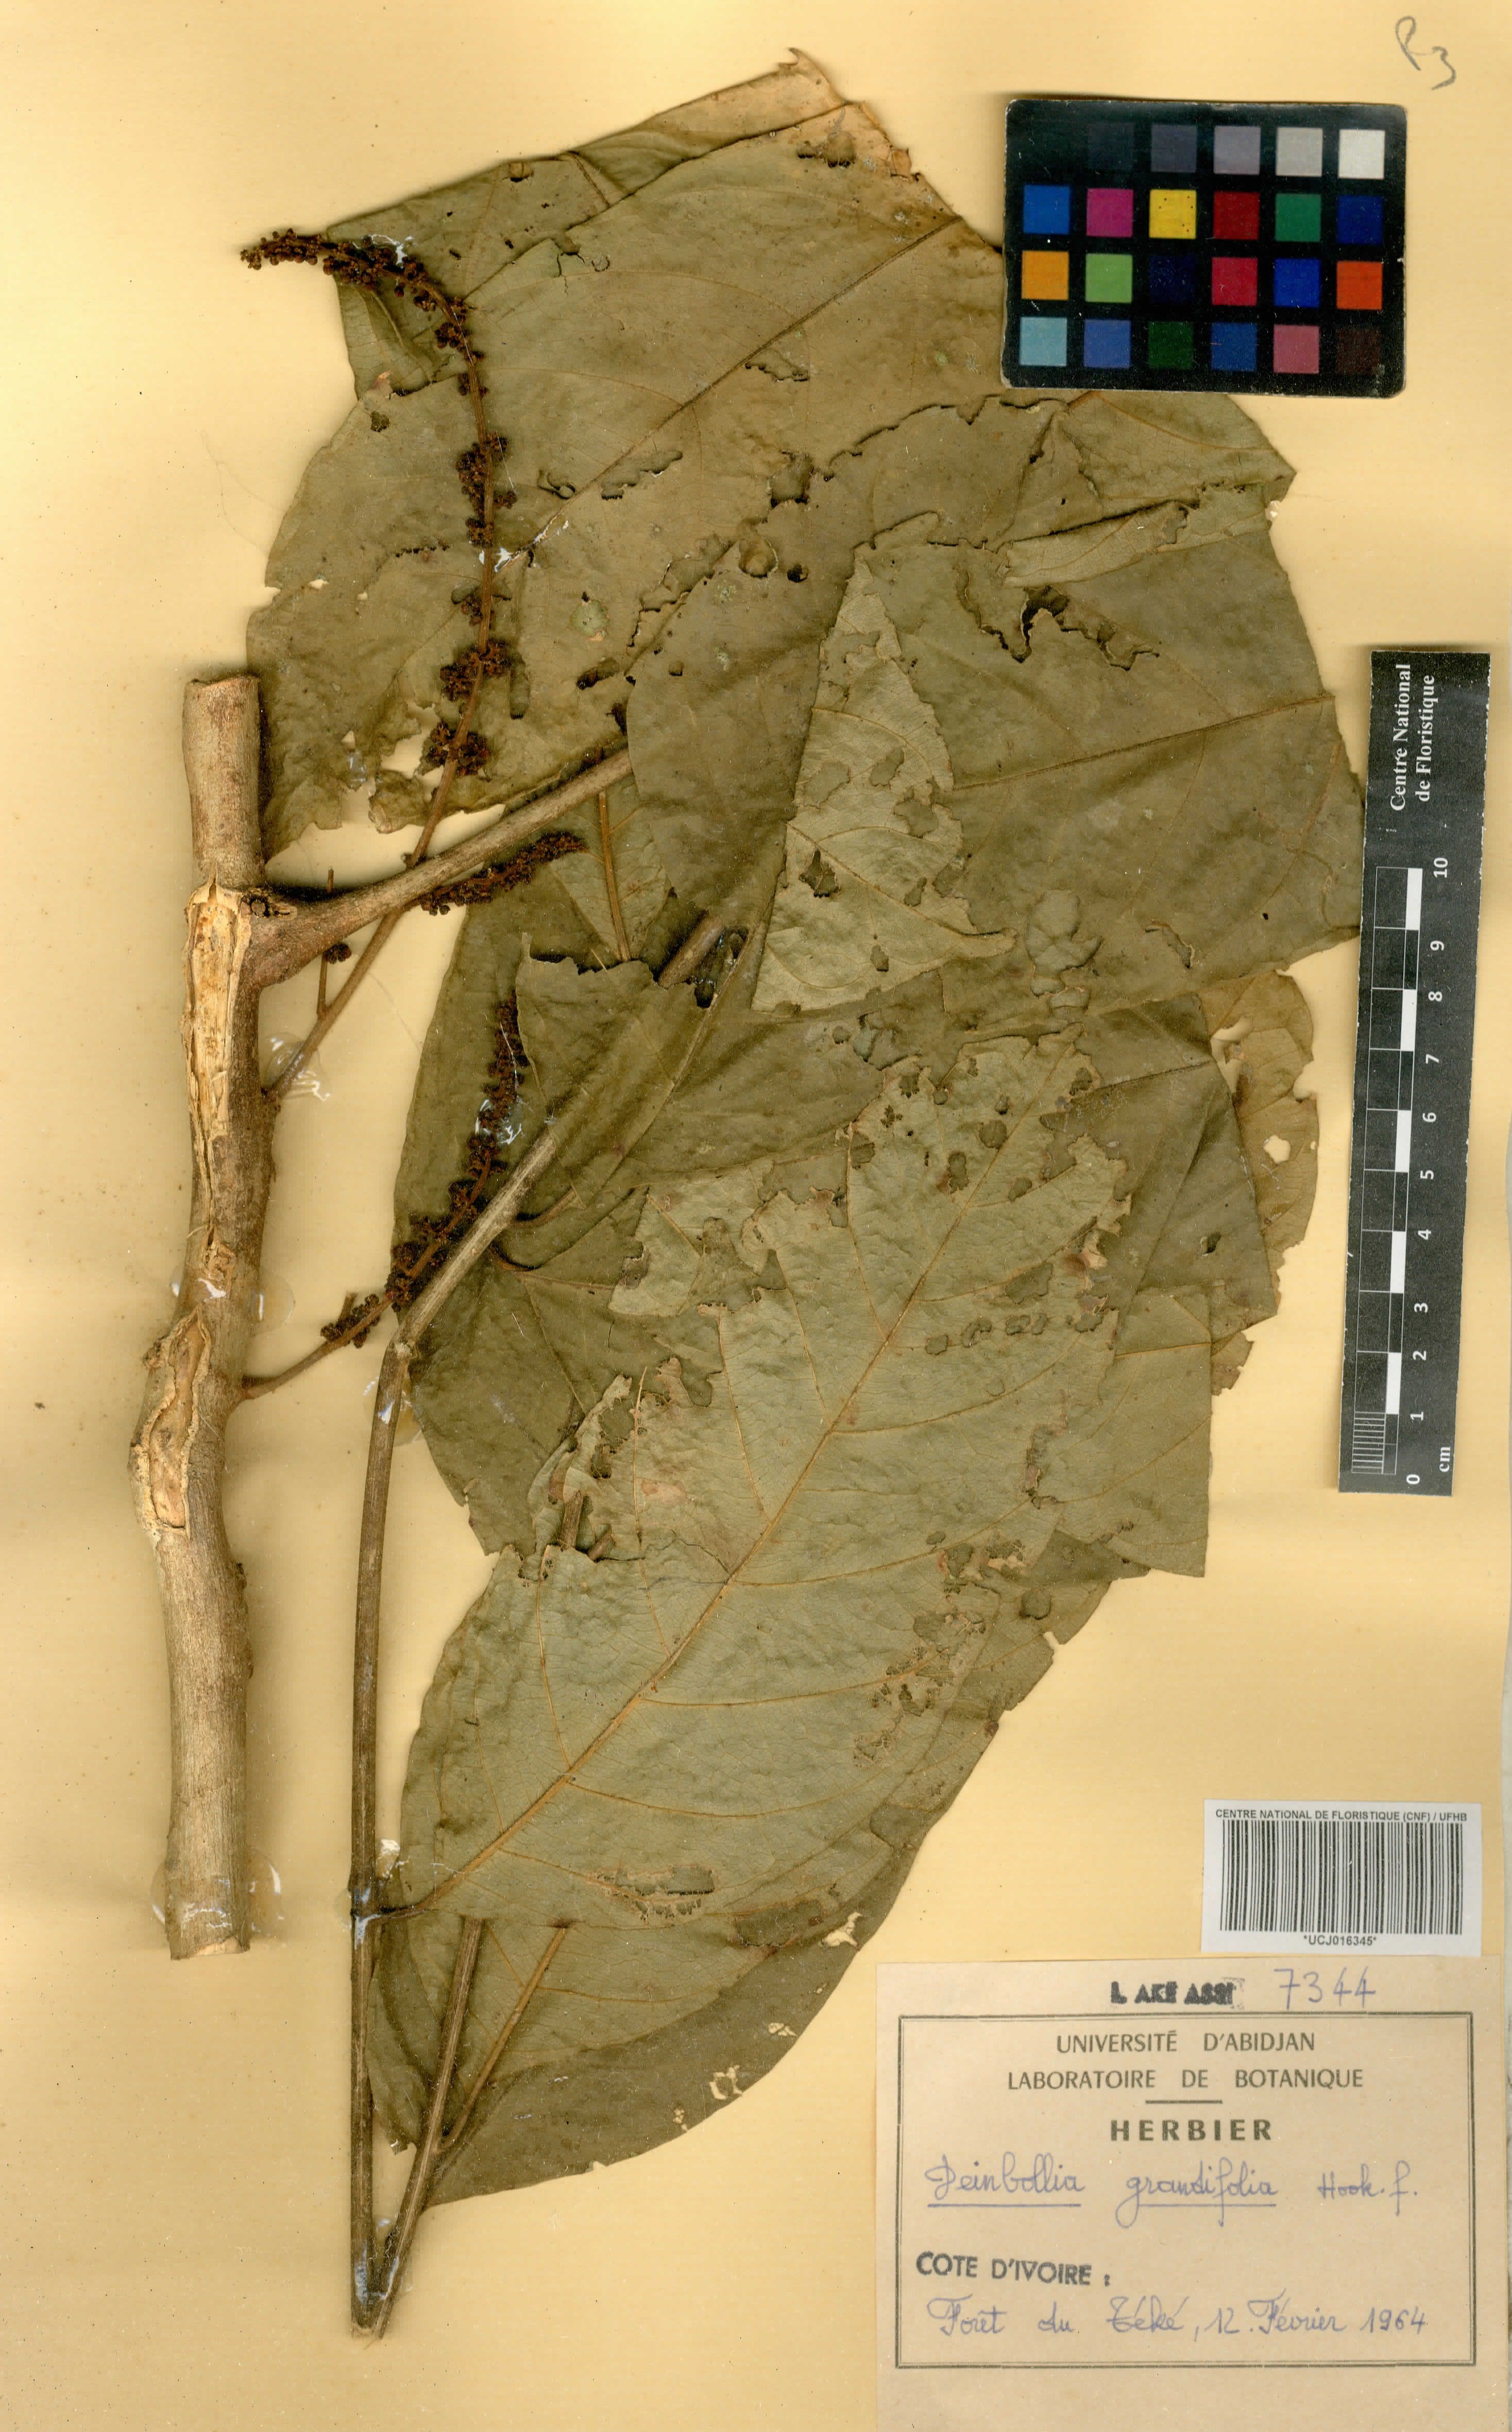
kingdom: Plantae
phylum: Tracheophyta
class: Magnoliopsida
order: Sapindales
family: Sapindaceae
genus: Deinbollia
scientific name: Deinbollia grandifolia
